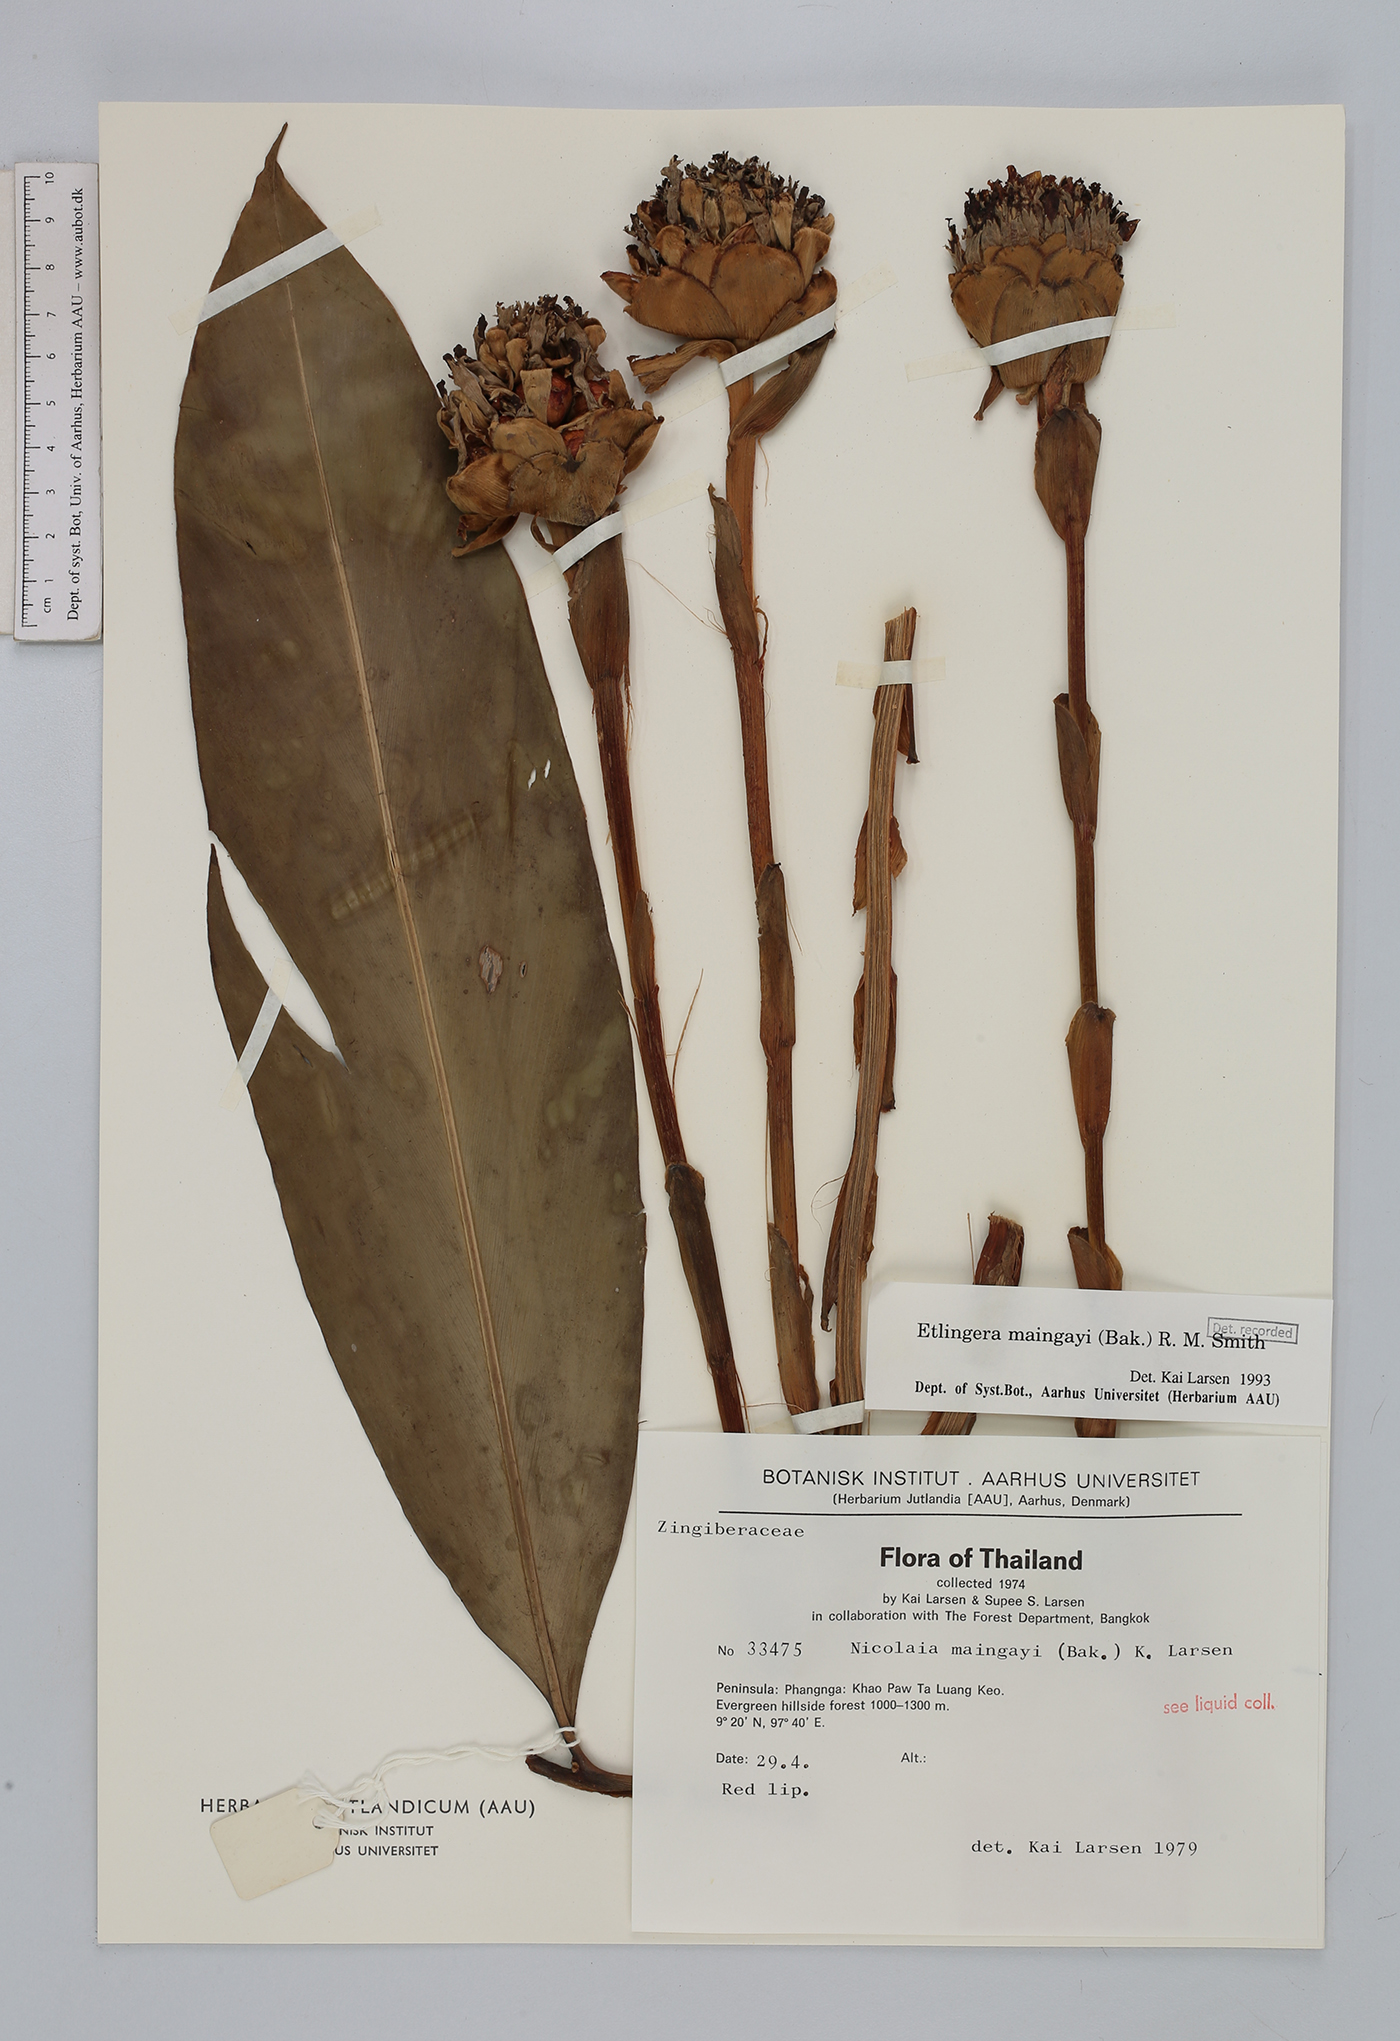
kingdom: Plantae
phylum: Tracheophyta
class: Liliopsida
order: Zingiberales
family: Zingiberaceae
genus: Etlingera
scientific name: Etlingera maingayi
